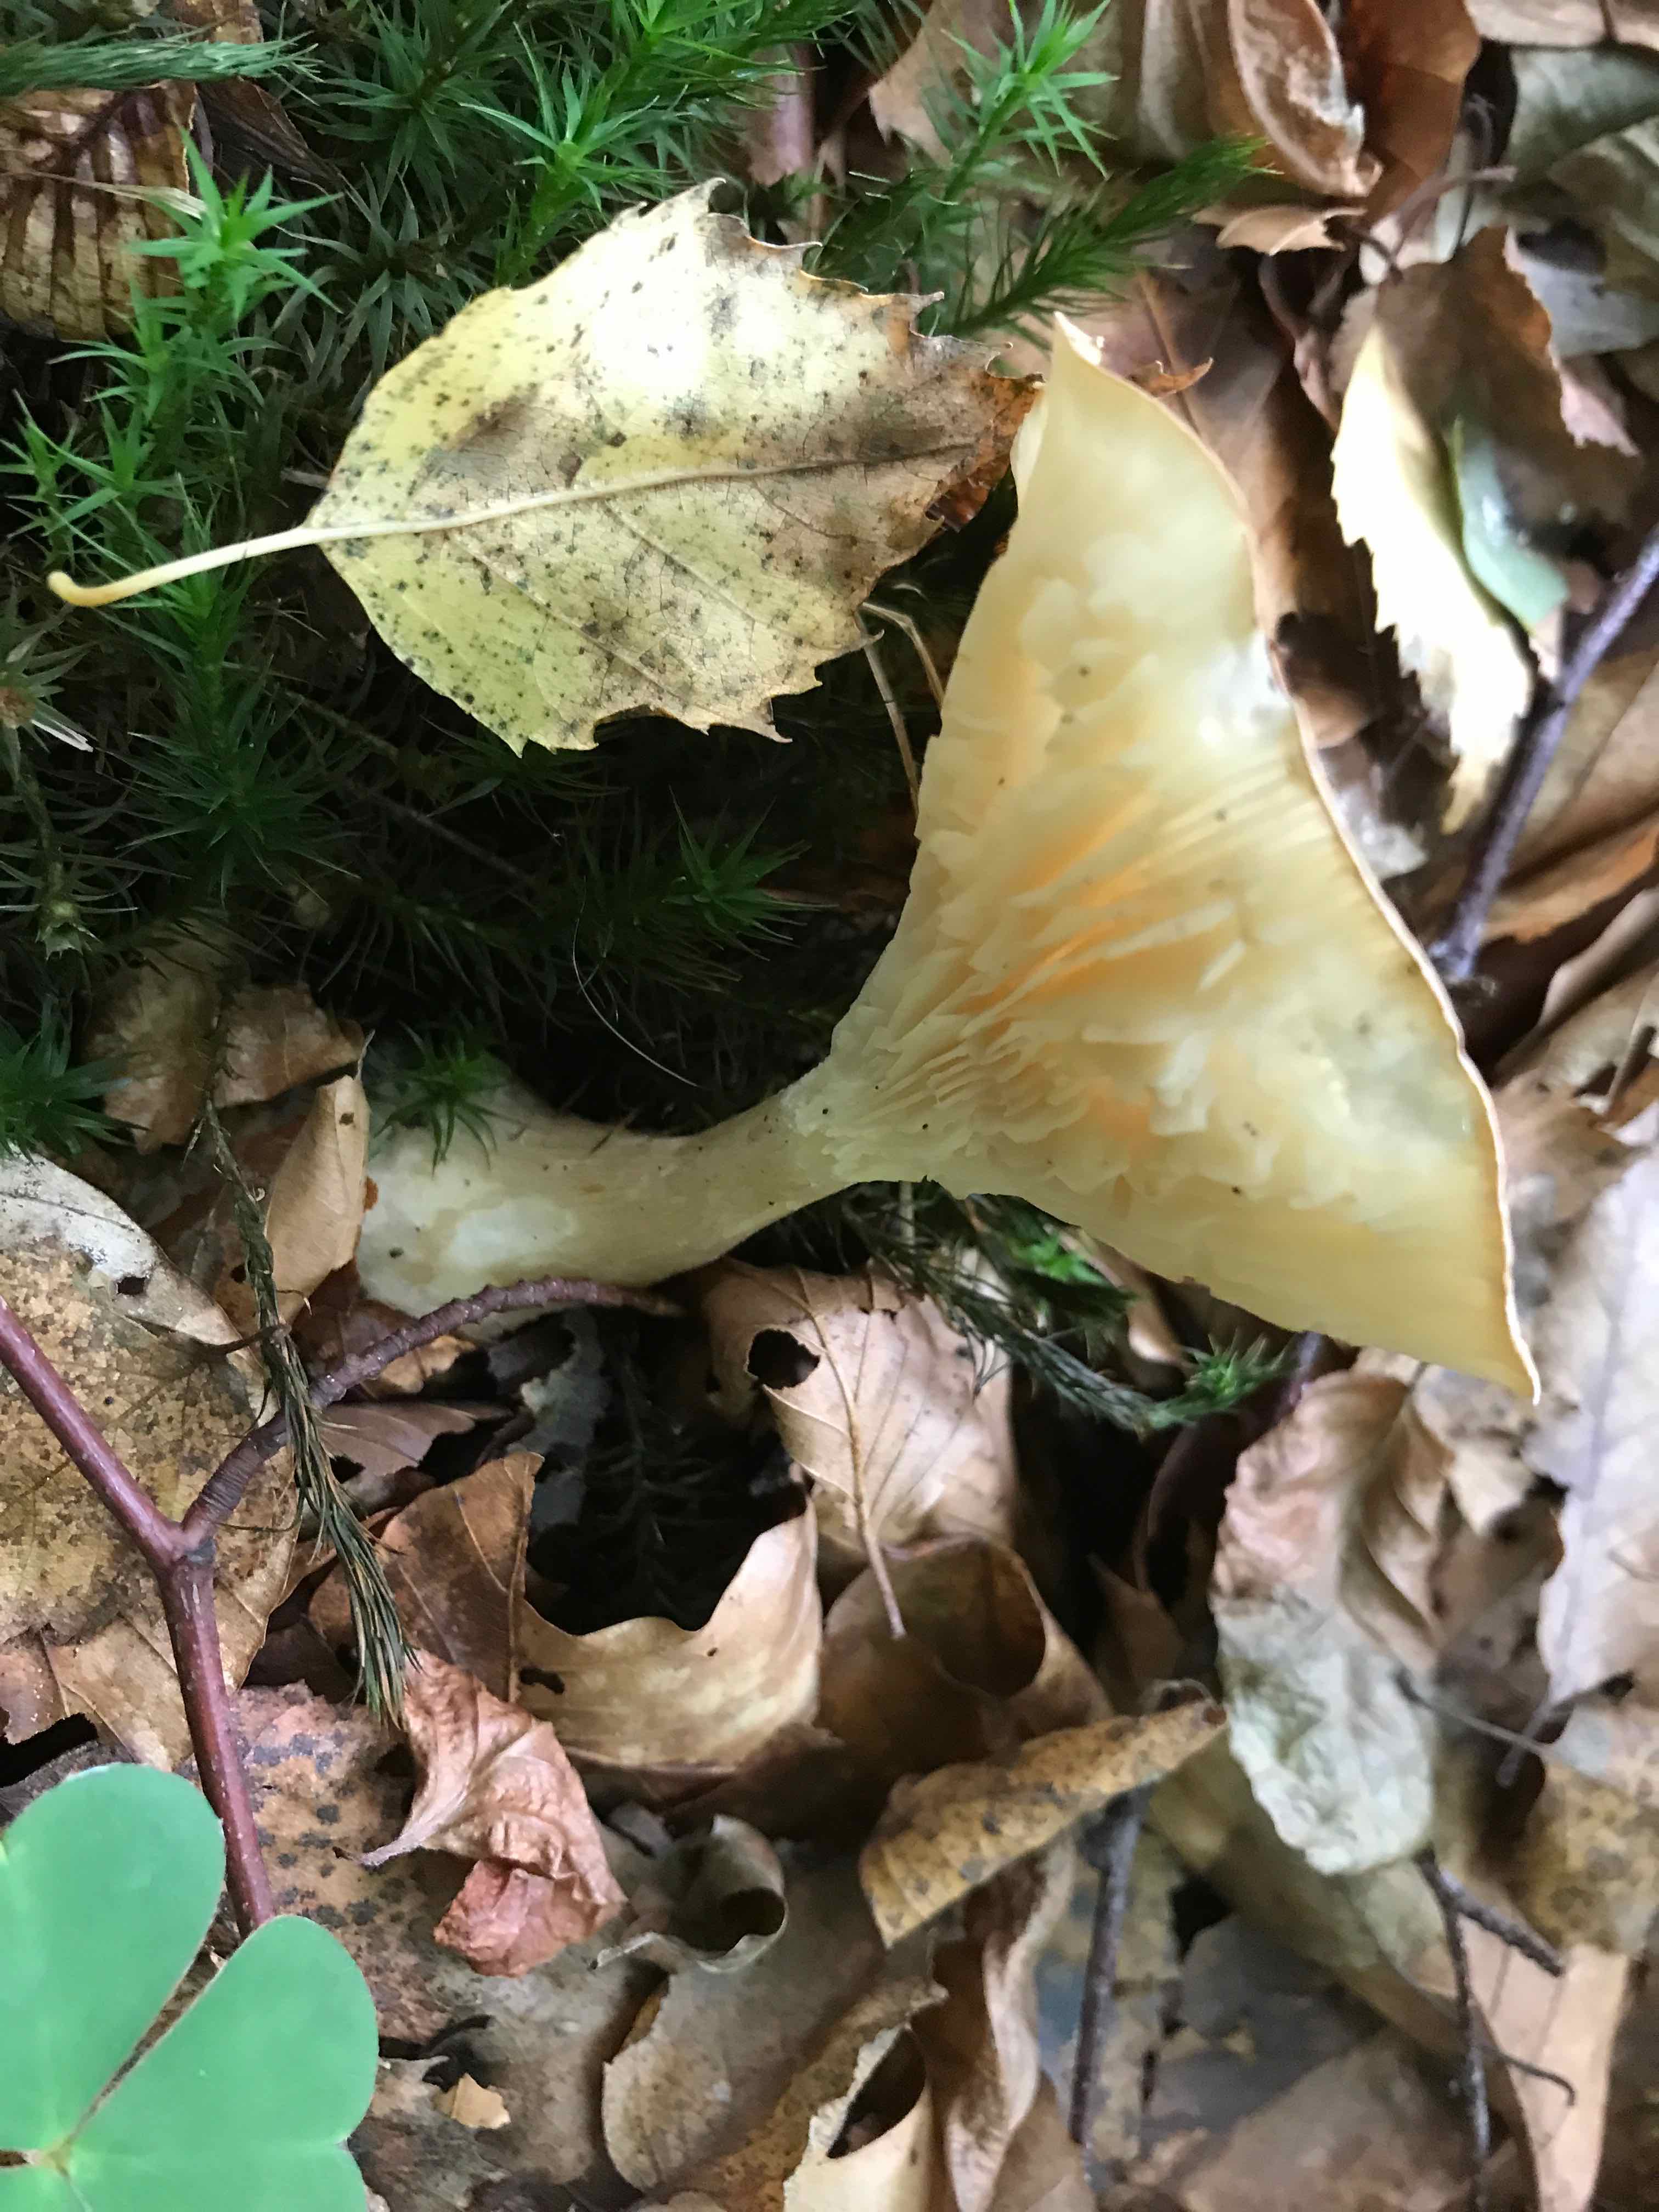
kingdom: Fungi
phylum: Basidiomycota
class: Agaricomycetes
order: Agaricales
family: Hygrophoraceae
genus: Ampulloclitocybe
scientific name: Ampulloclitocybe clavipes
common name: køllefod
